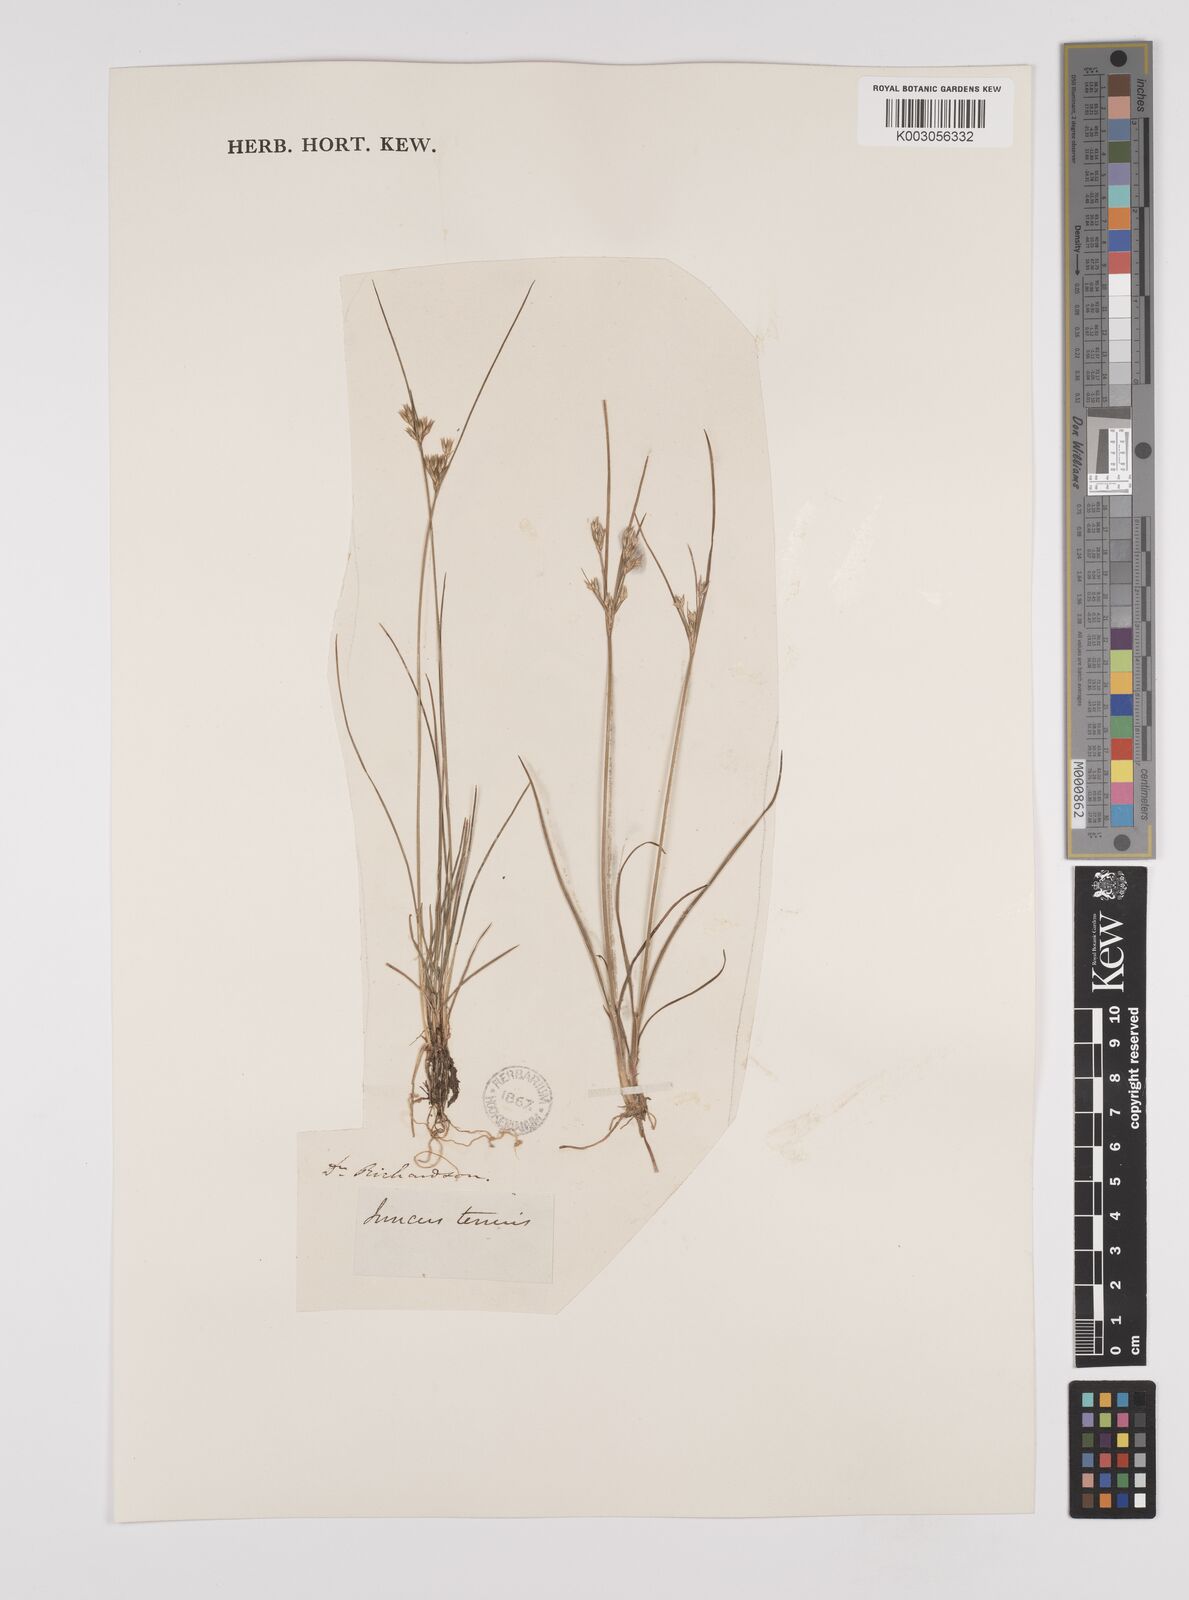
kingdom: Plantae
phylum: Tracheophyta
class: Liliopsida
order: Poales
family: Juncaceae
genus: Juncus
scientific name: Juncus tenuis
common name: Slender rush
